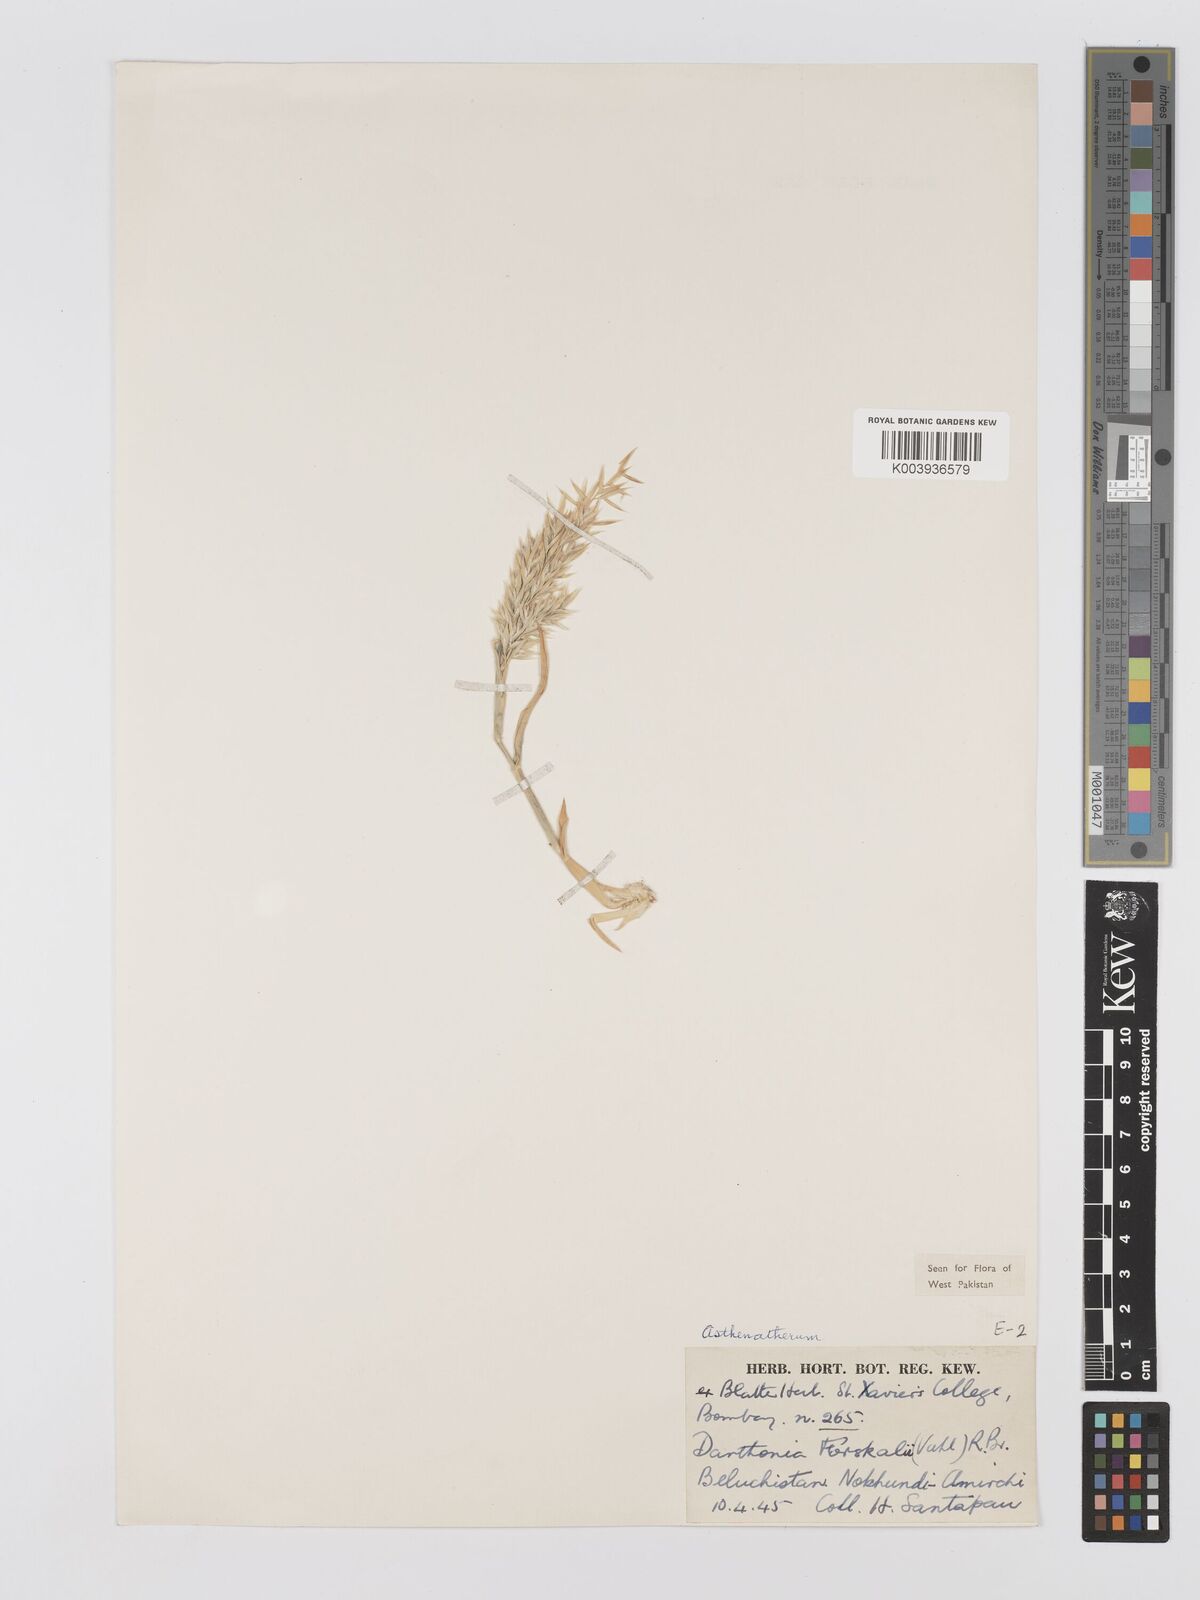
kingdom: Plantae
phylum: Tracheophyta
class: Liliopsida
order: Poales
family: Poaceae
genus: Centropodia
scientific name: Centropodia forskaolii
